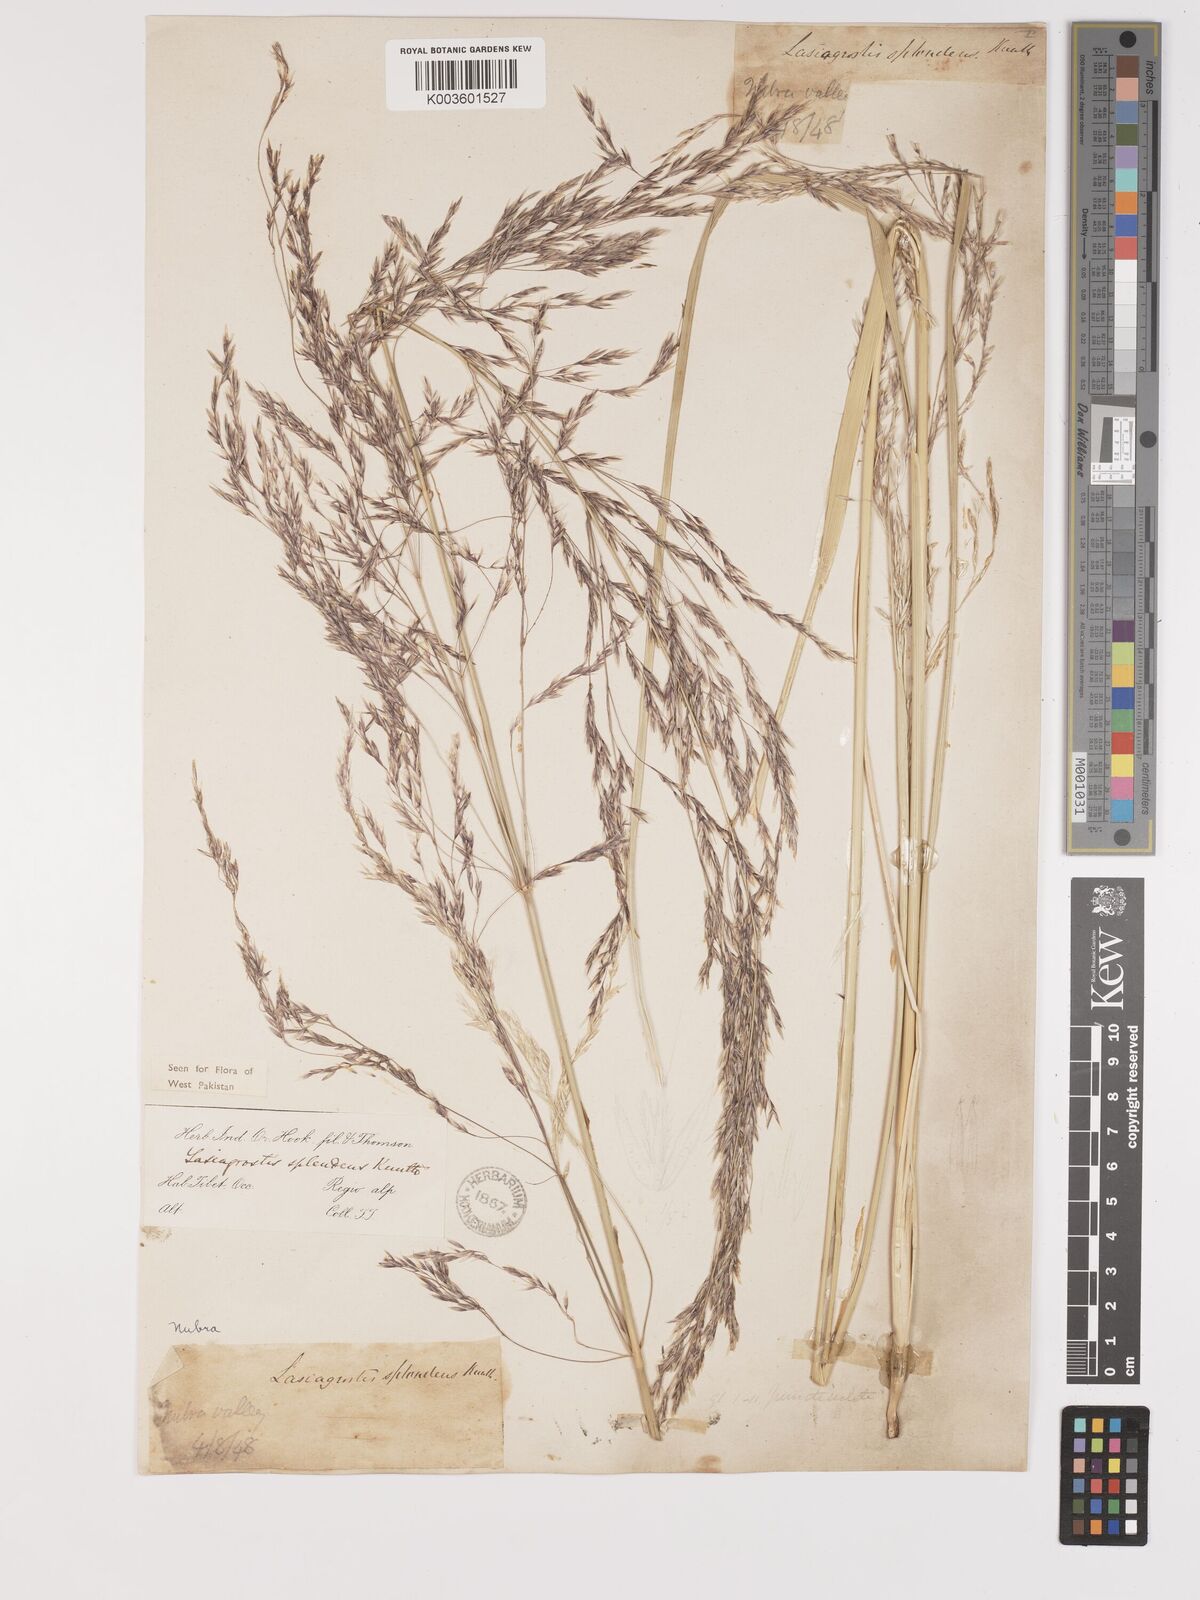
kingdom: Plantae
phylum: Tracheophyta
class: Liliopsida
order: Poales
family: Poaceae
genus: Neotrinia
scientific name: Neotrinia splendens
